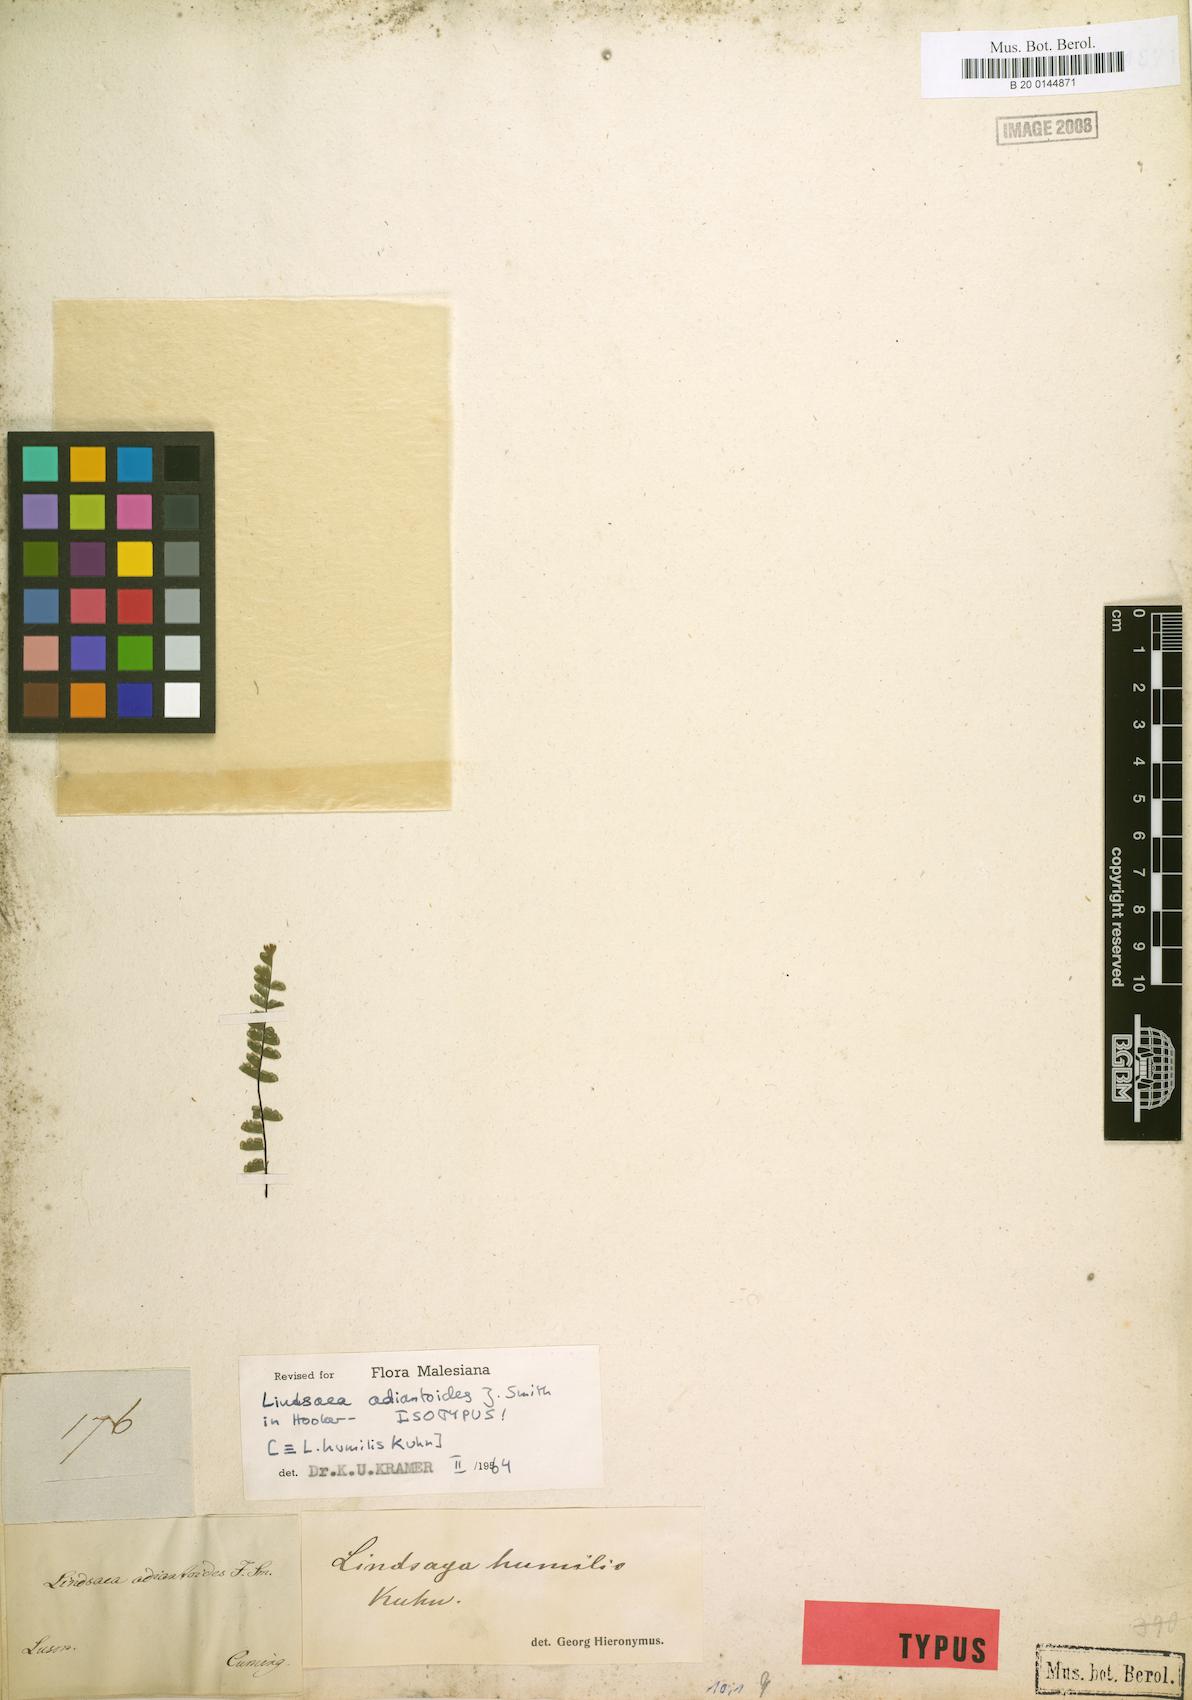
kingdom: Plantae
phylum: Tracheophyta
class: Polypodiopsida
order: Polypodiales
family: Lindsaeaceae
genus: Lindsaea
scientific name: Lindsaea adiantoides
